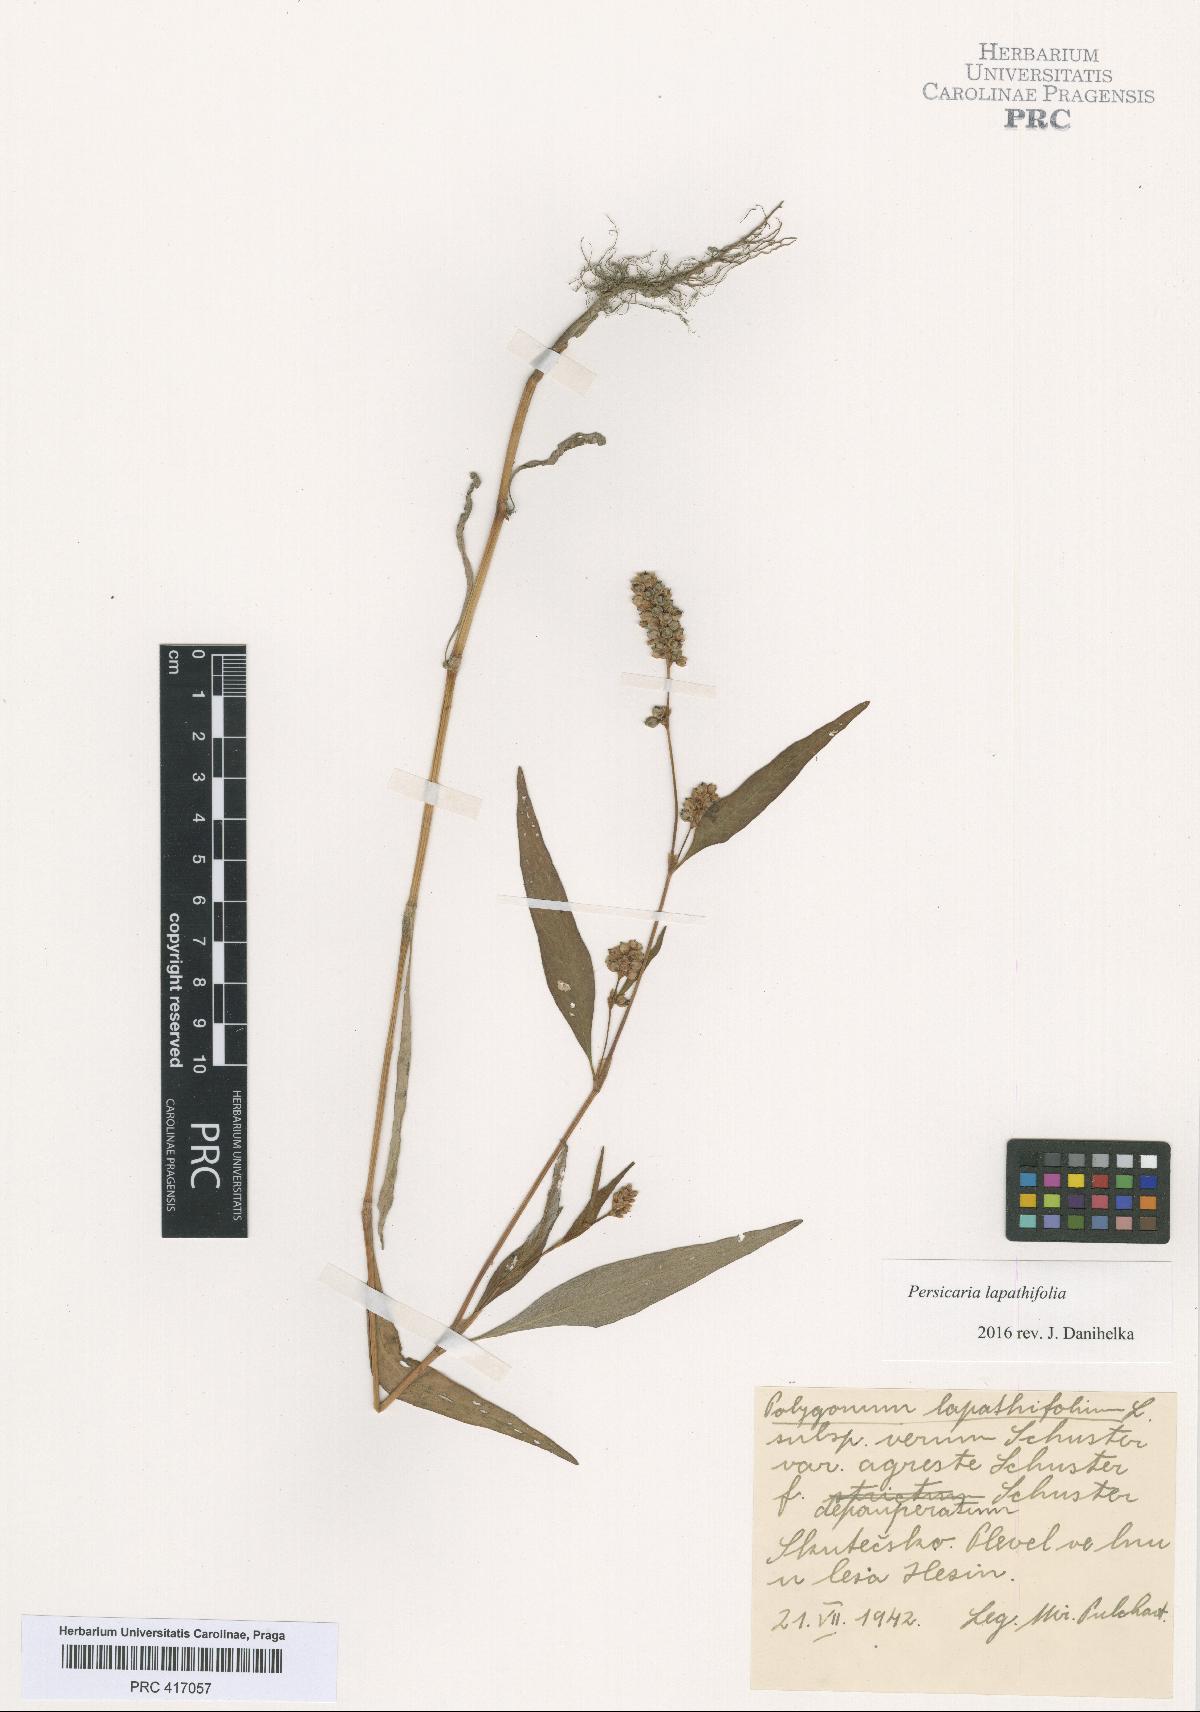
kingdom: Plantae
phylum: Tracheophyta
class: Magnoliopsida
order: Caryophyllales
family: Polygonaceae
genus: Persicaria
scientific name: Persicaria lapathifolia
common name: Curlytop knotweed
